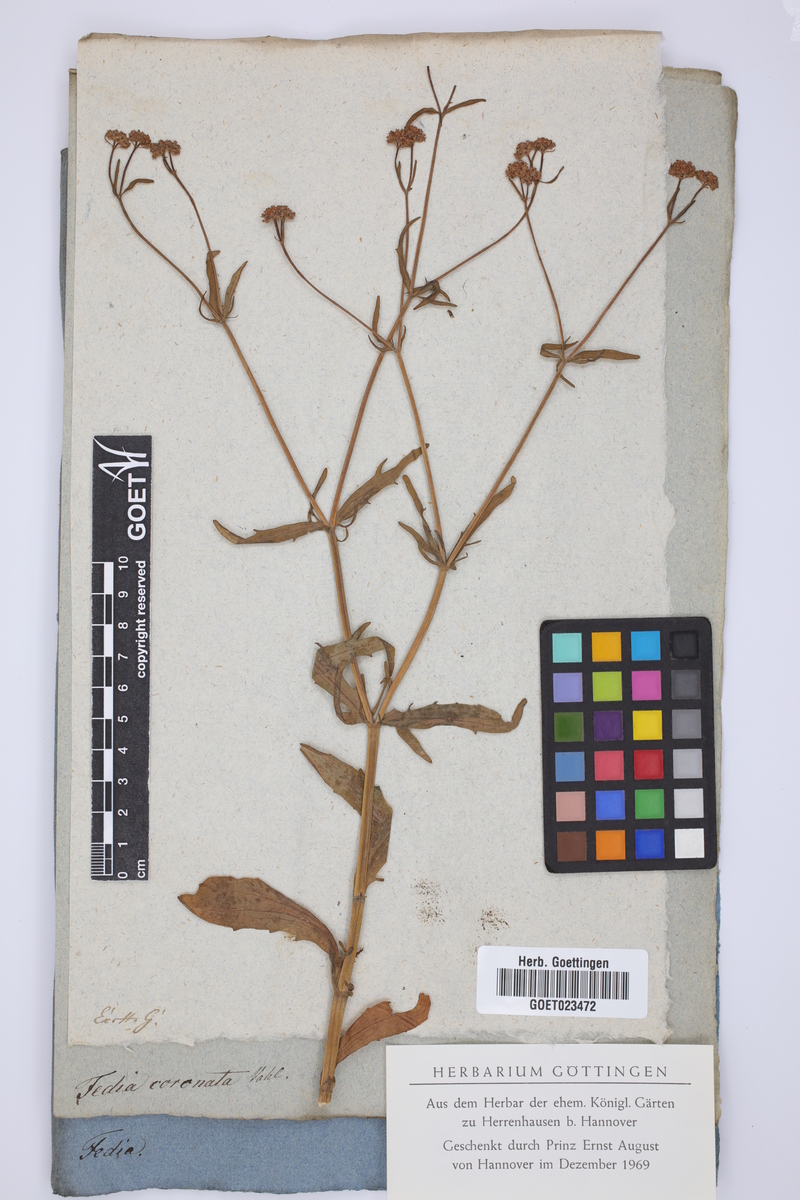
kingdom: Plantae
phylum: Tracheophyta
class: Magnoliopsida
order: Dipsacales
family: Caprifoliaceae
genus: Valerianella
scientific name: Valerianella coronata
